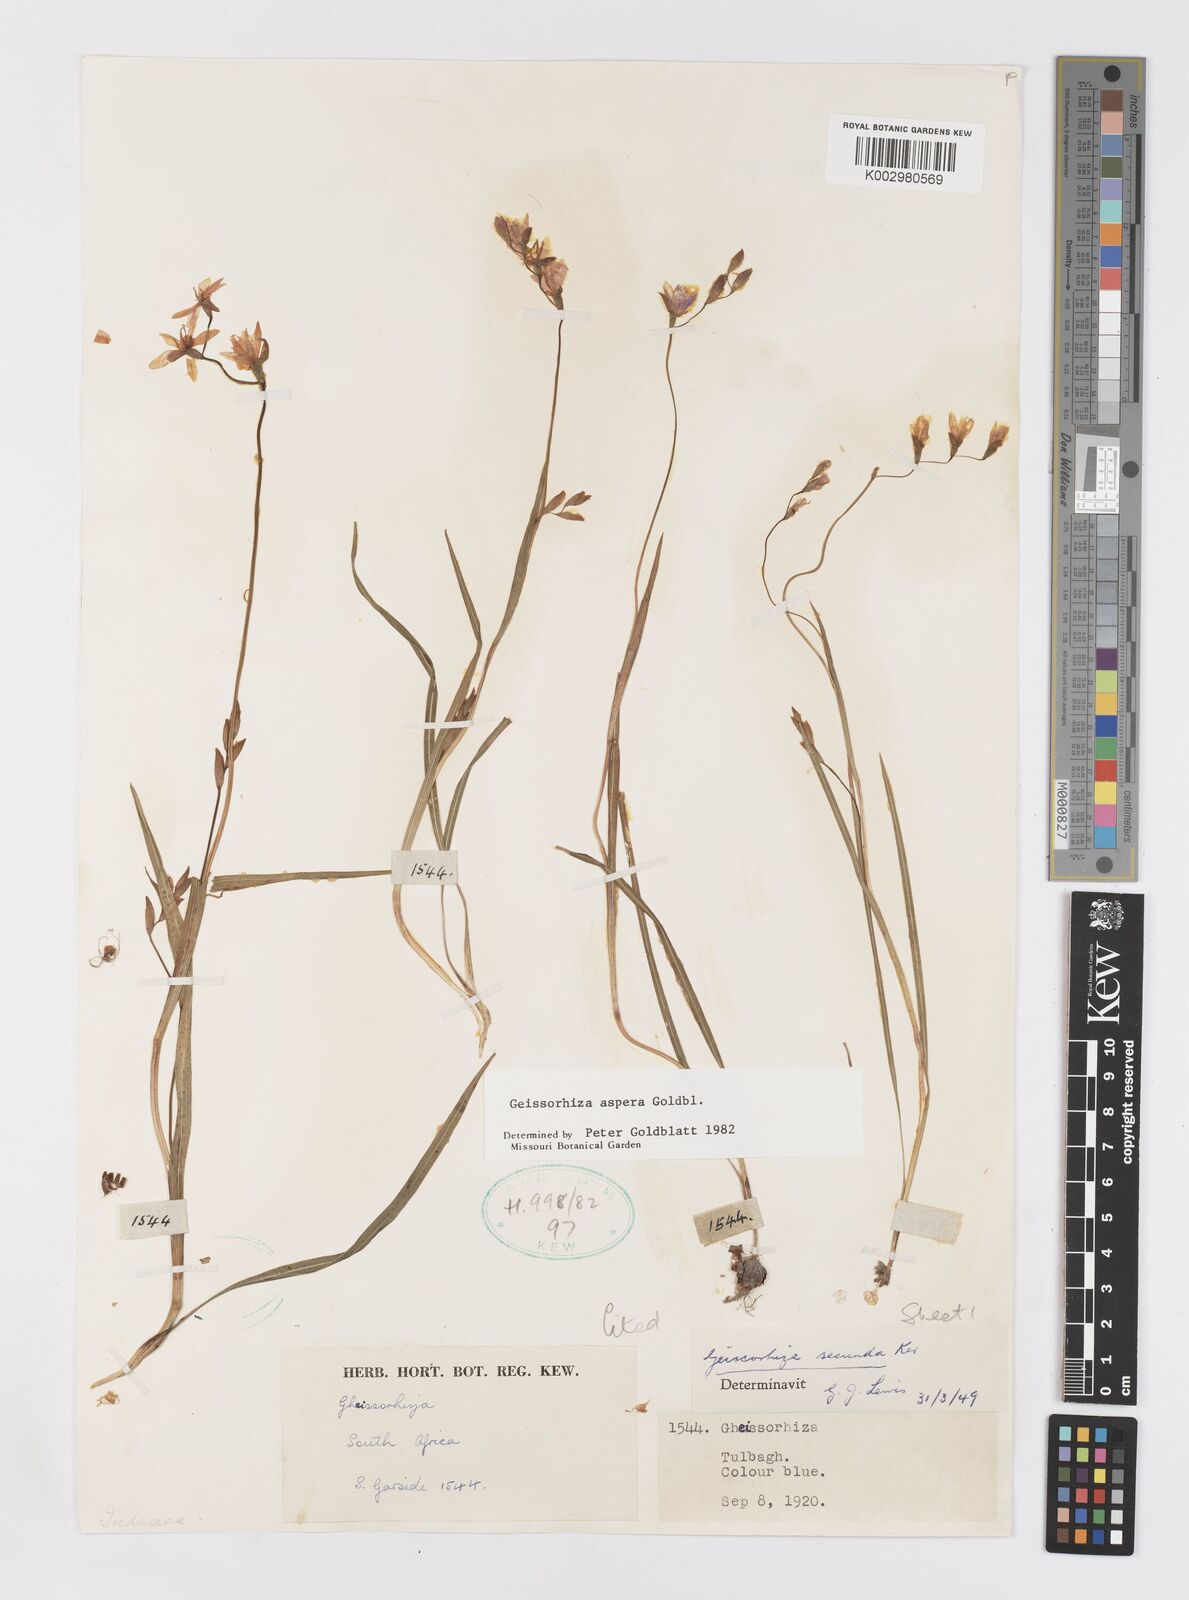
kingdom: Plantae
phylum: Tracheophyta
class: Liliopsida
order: Asparagales
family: Iridaceae
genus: Geissorhiza
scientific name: Geissorhiza aspera
